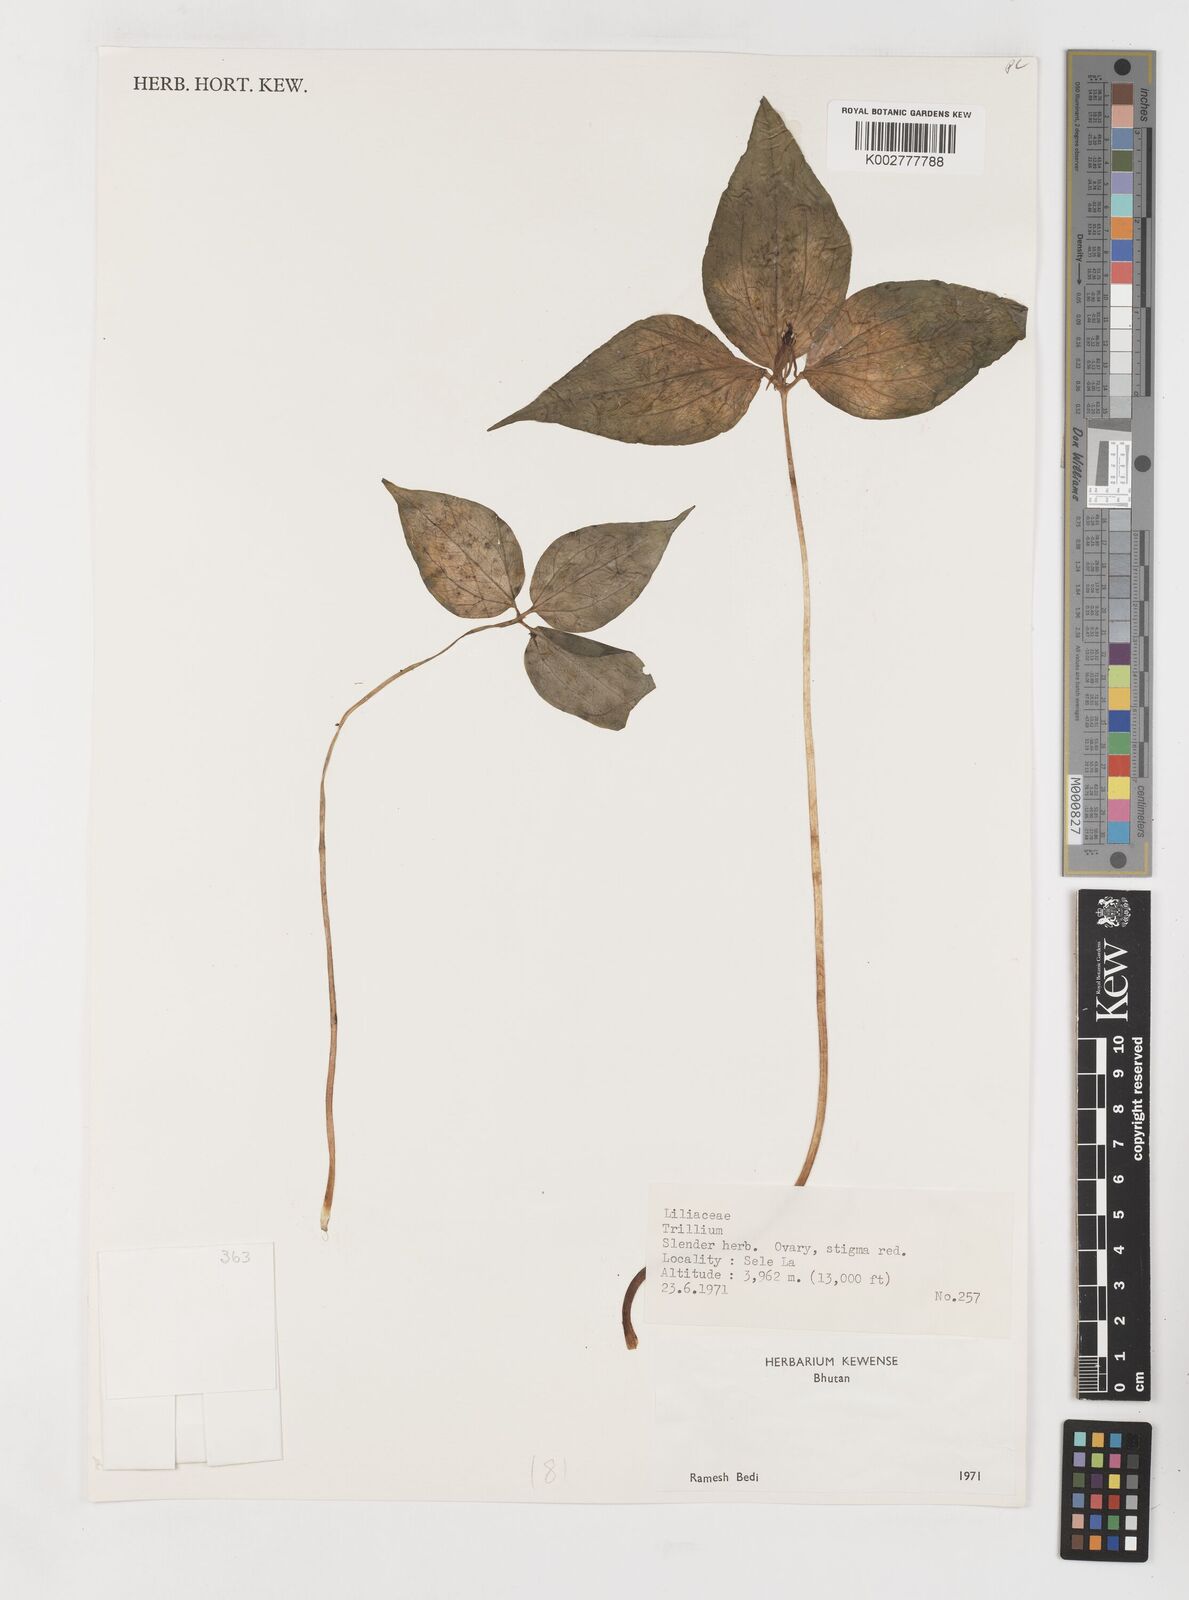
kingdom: Plantae
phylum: Tracheophyta
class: Liliopsida
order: Liliales
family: Melanthiaceae
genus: Trillium
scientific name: Trillium govanianum
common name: Himalayan trillium
